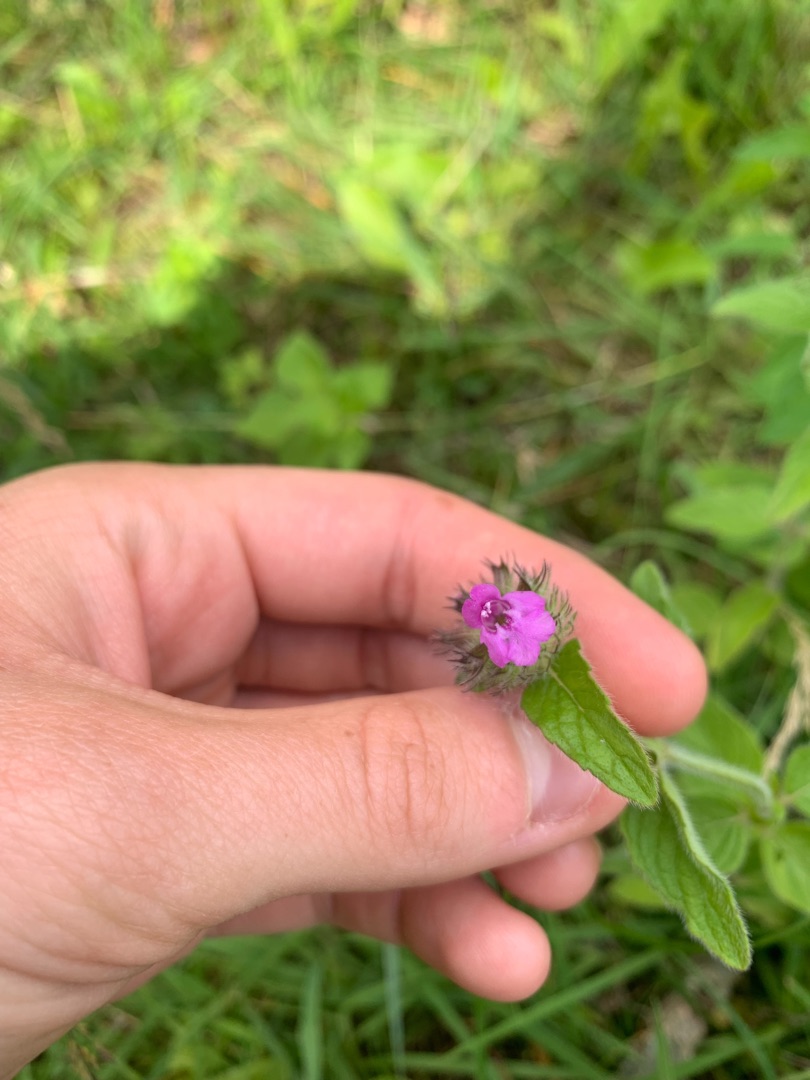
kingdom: Plantae
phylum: Tracheophyta
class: Magnoliopsida
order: Lamiales
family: Lamiaceae
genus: Clinopodium
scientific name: Clinopodium vulgare
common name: Kransbørste
